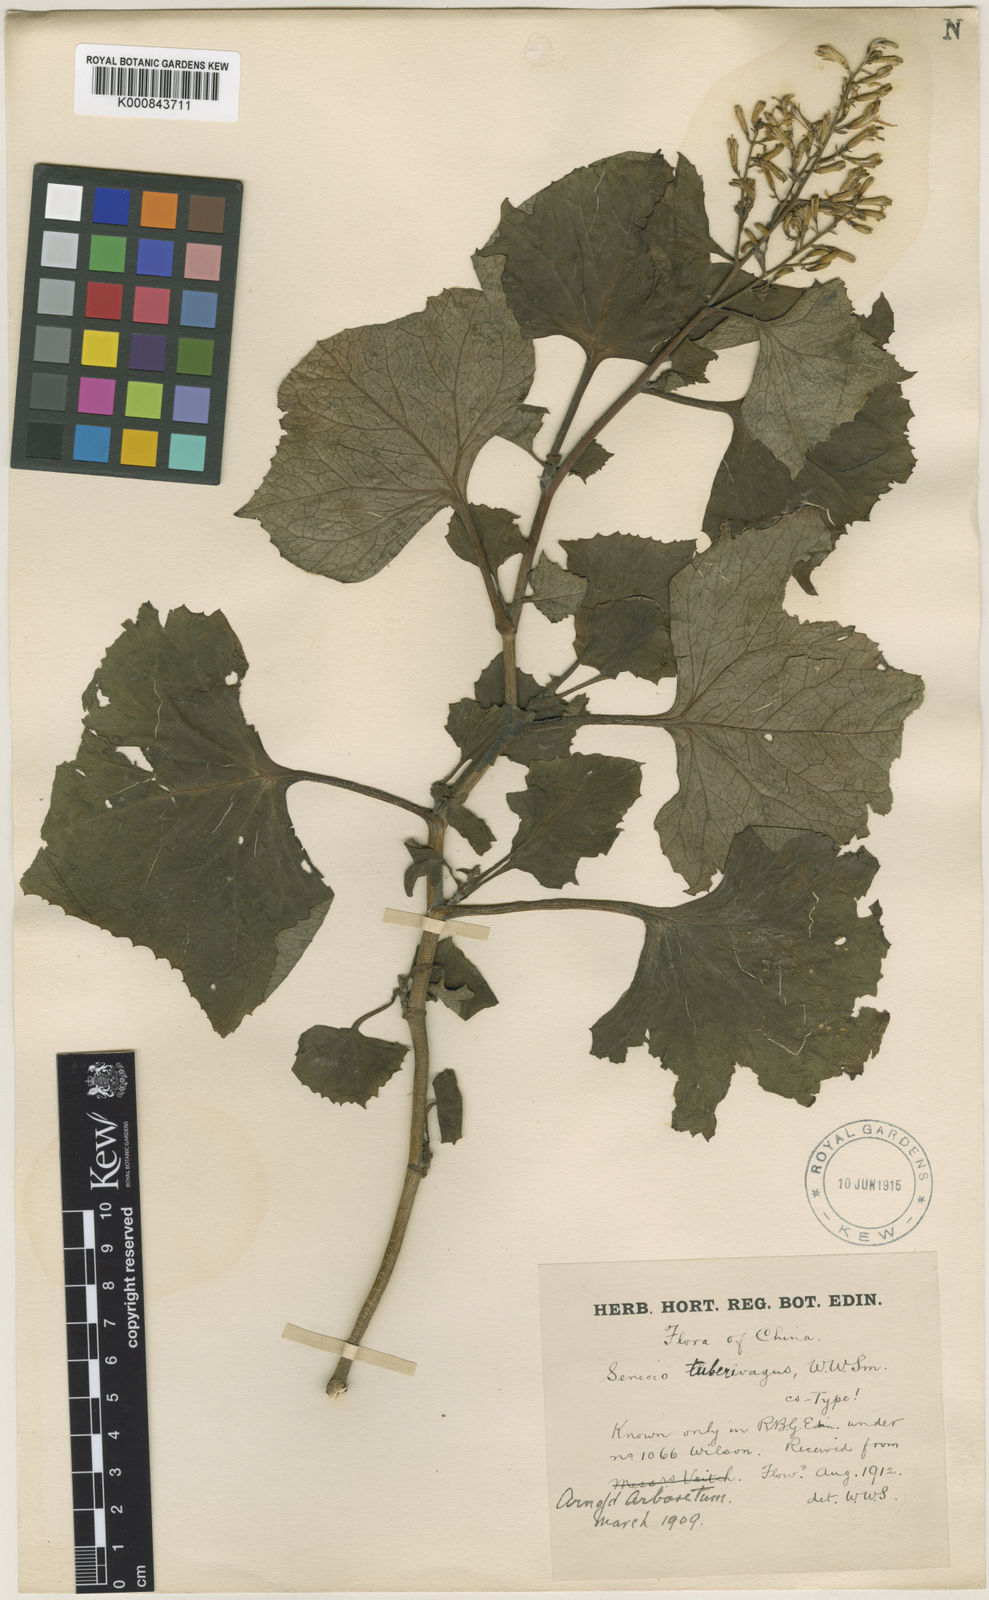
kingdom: Plantae
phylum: Tracheophyta
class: Magnoliopsida
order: Asterales
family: Asteraceae
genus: Sinacalia
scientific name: Sinacalia davidii
